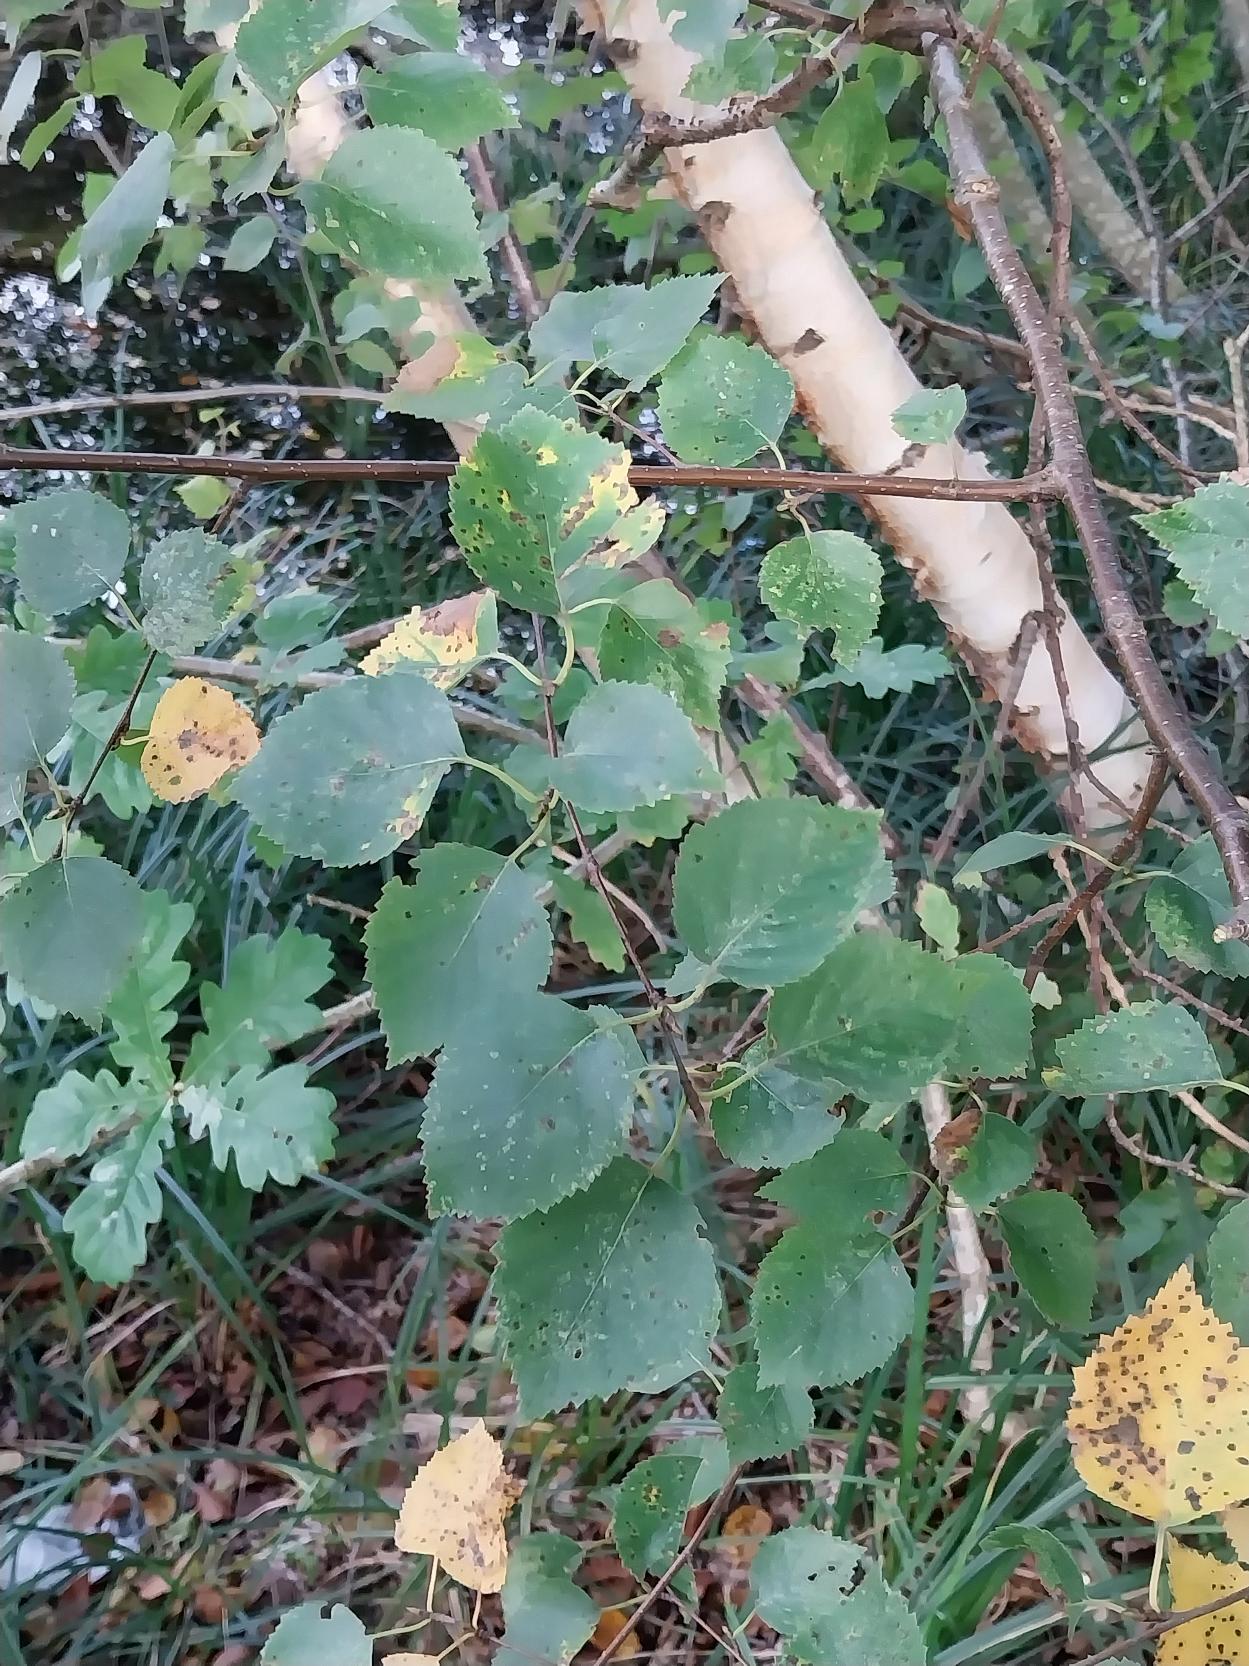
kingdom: Plantae
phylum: Tracheophyta
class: Magnoliopsida
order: Fagales
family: Betulaceae
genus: Betula
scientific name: Betula pendula
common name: Vorte-birk
